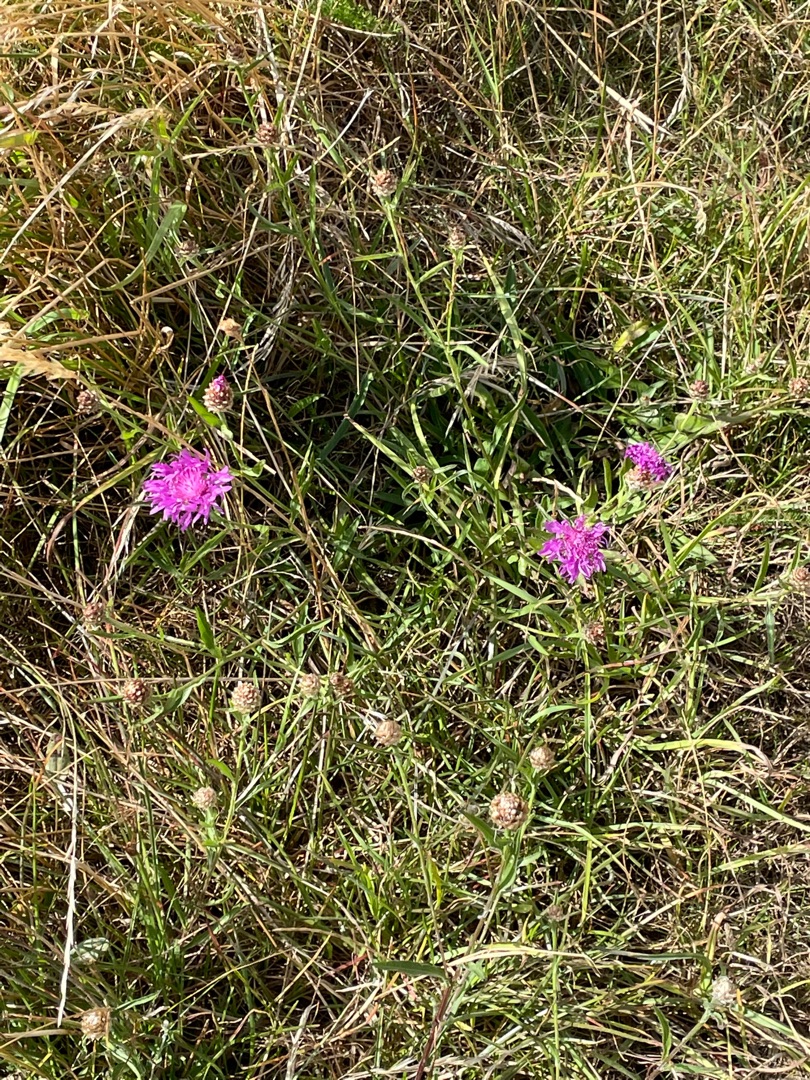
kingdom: Plantae
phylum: Tracheophyta
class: Magnoliopsida
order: Asterales
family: Asteraceae
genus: Centaurea
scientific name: Centaurea jacea
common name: Almindelig knopurt
